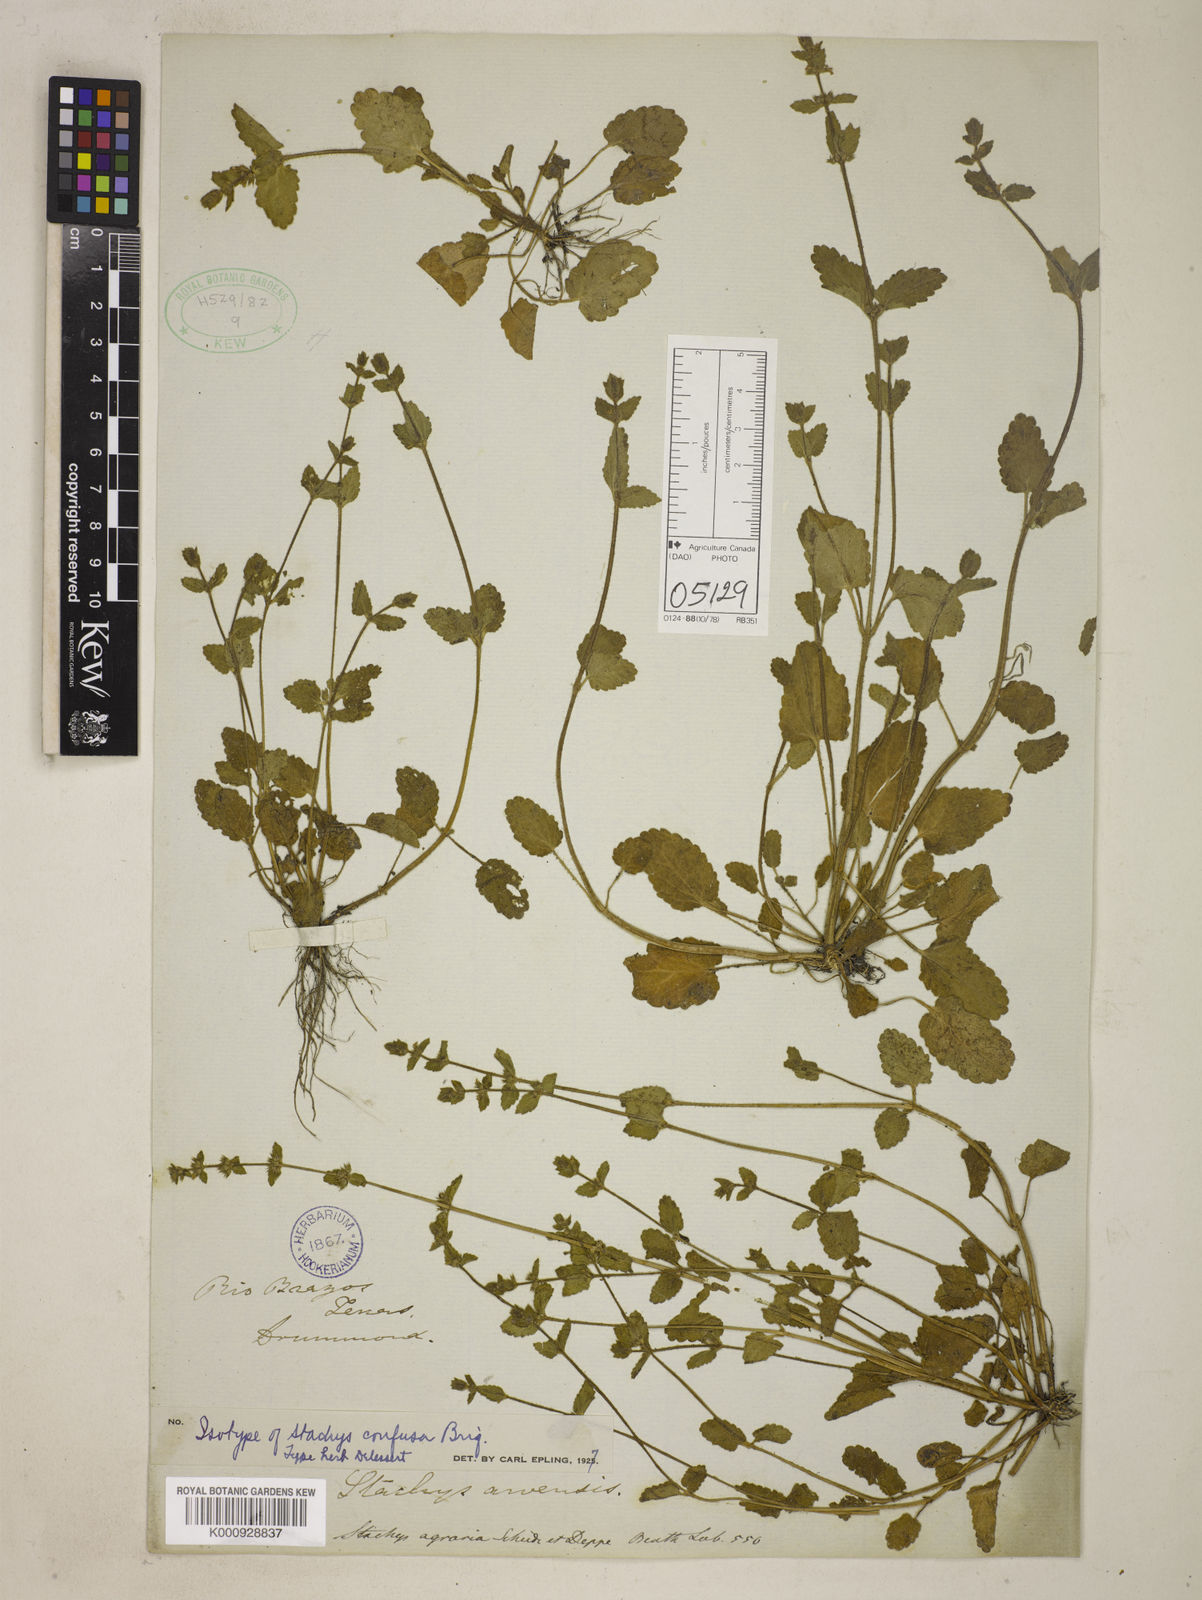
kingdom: Plantae
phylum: Tracheophyta
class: Magnoliopsida
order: Lamiales
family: Lamiaceae
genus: Stachys
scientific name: Stachys agraria
